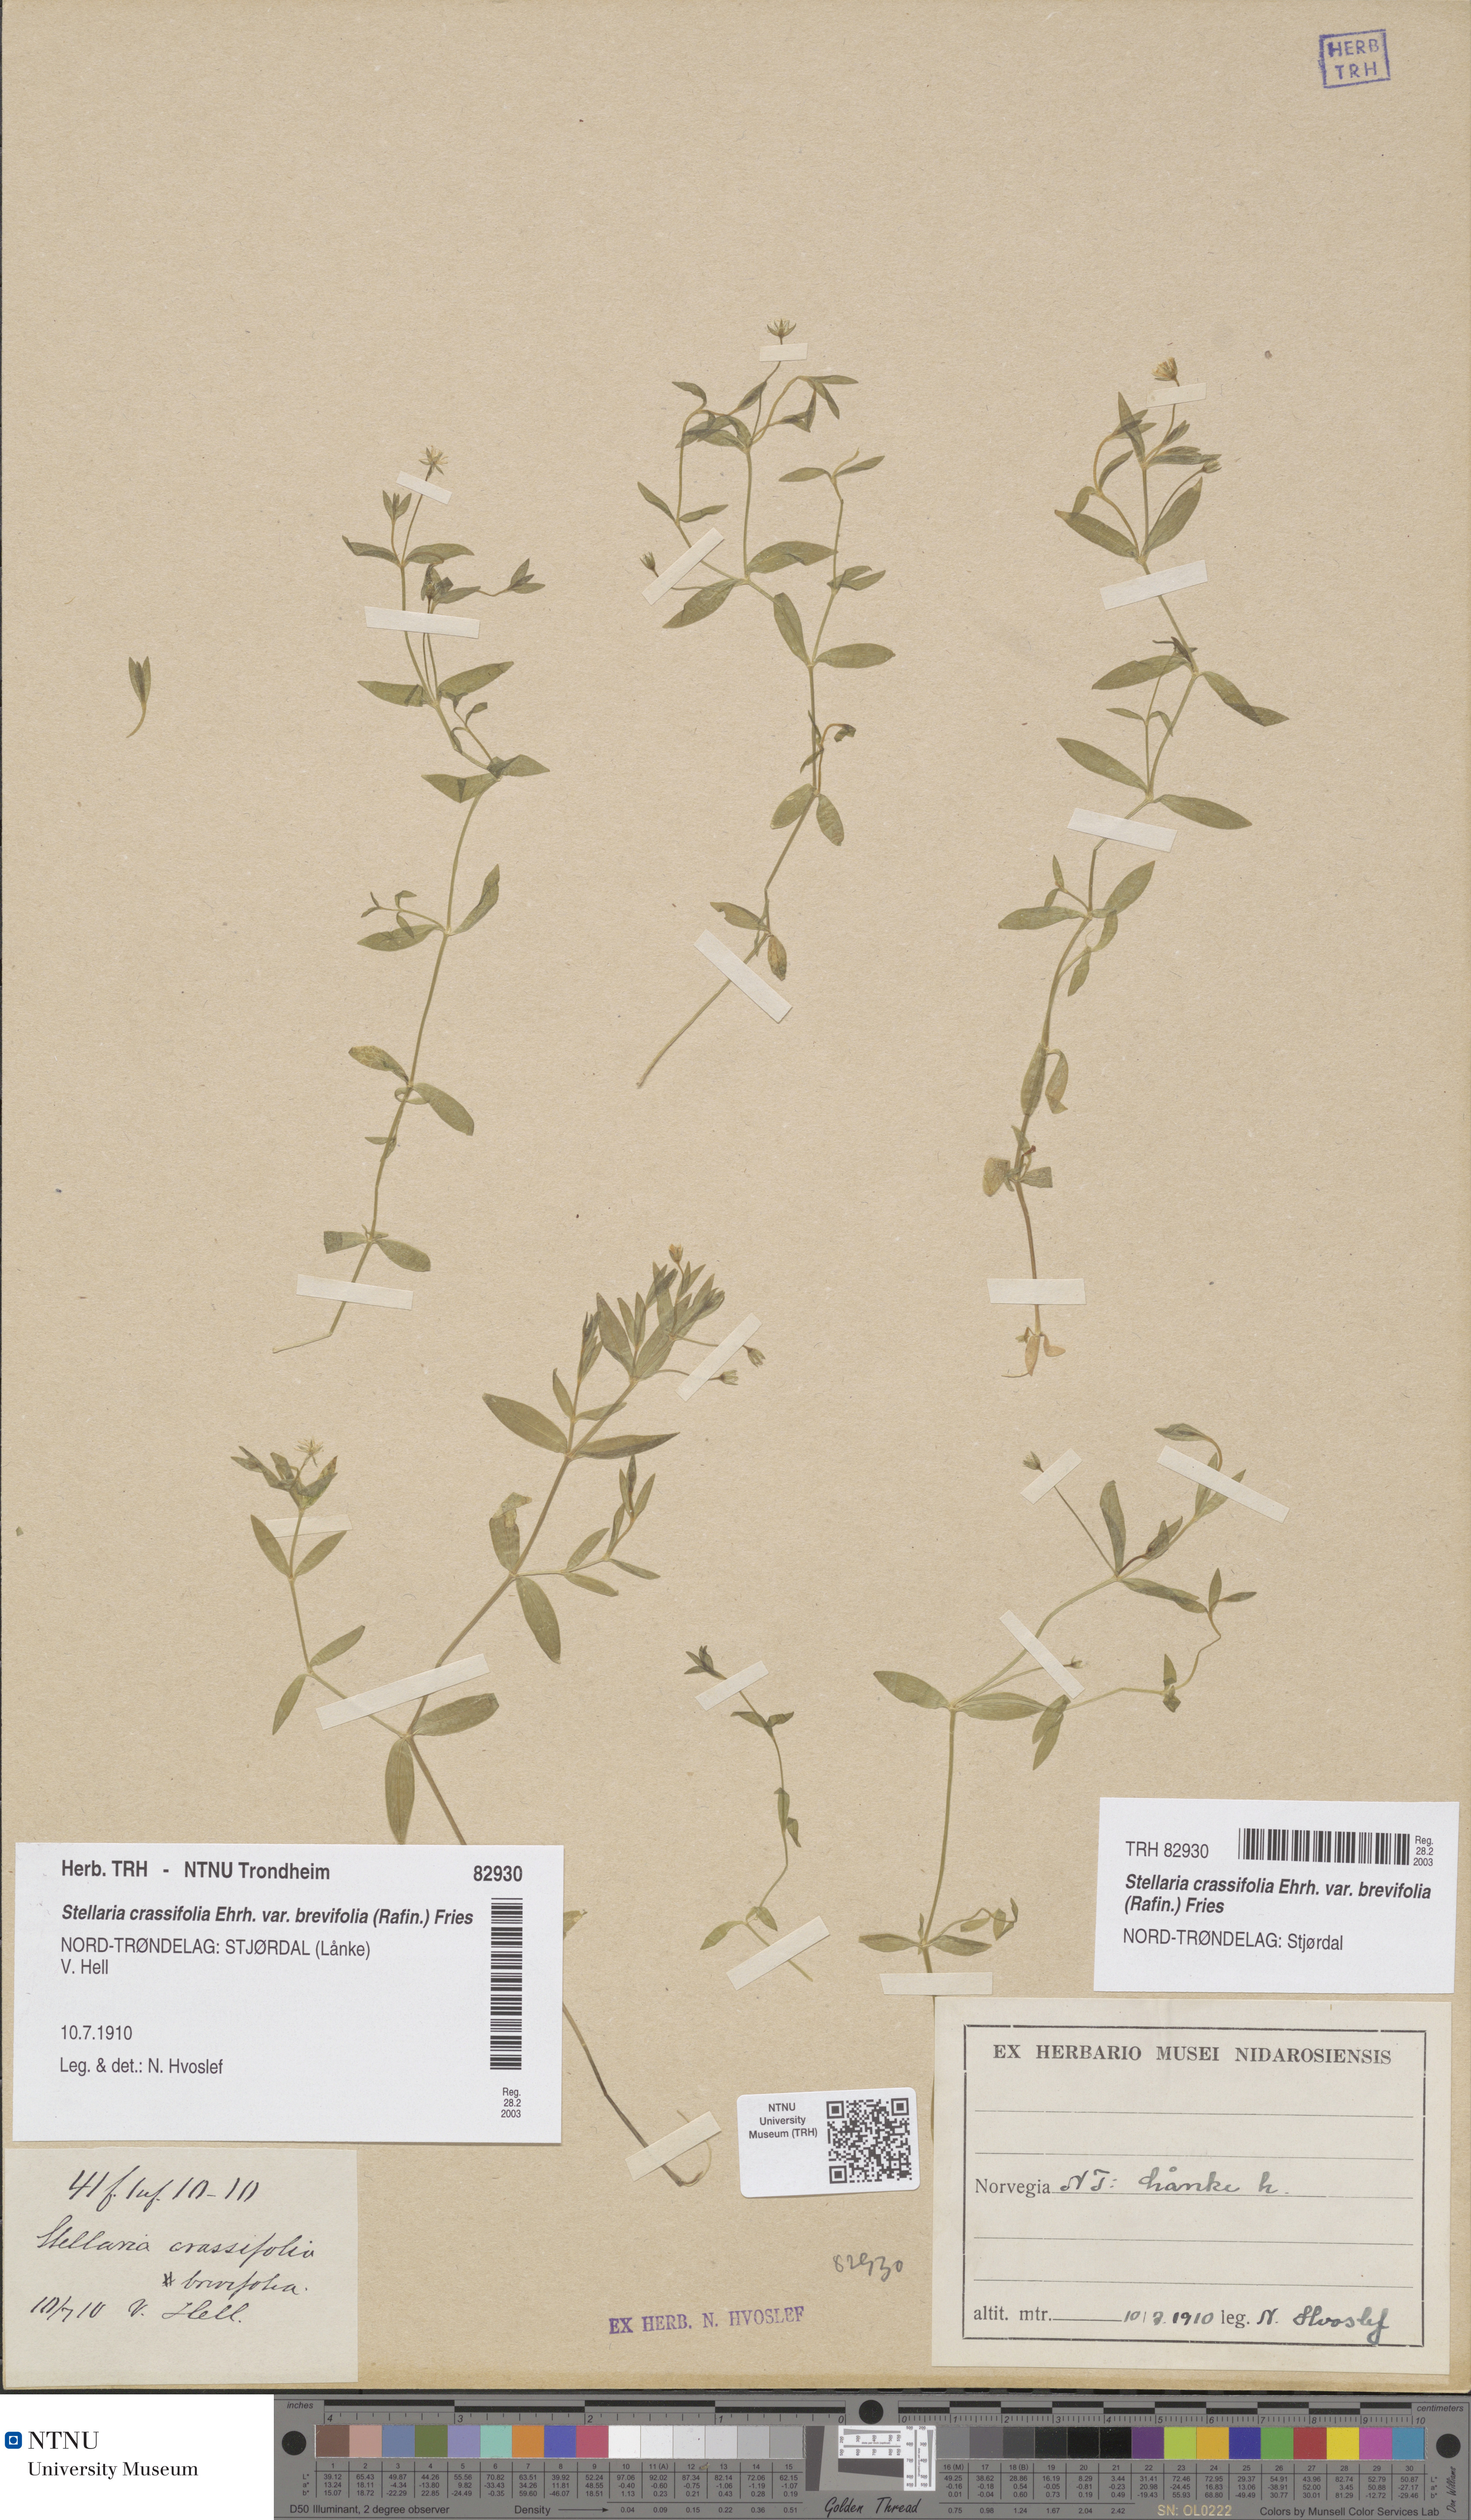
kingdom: Plantae
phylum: Tracheophyta
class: Magnoliopsida
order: Caryophyllales
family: Caryophyllaceae
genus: Stellaria
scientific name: Stellaria crassifolia
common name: Fleshy starwort
